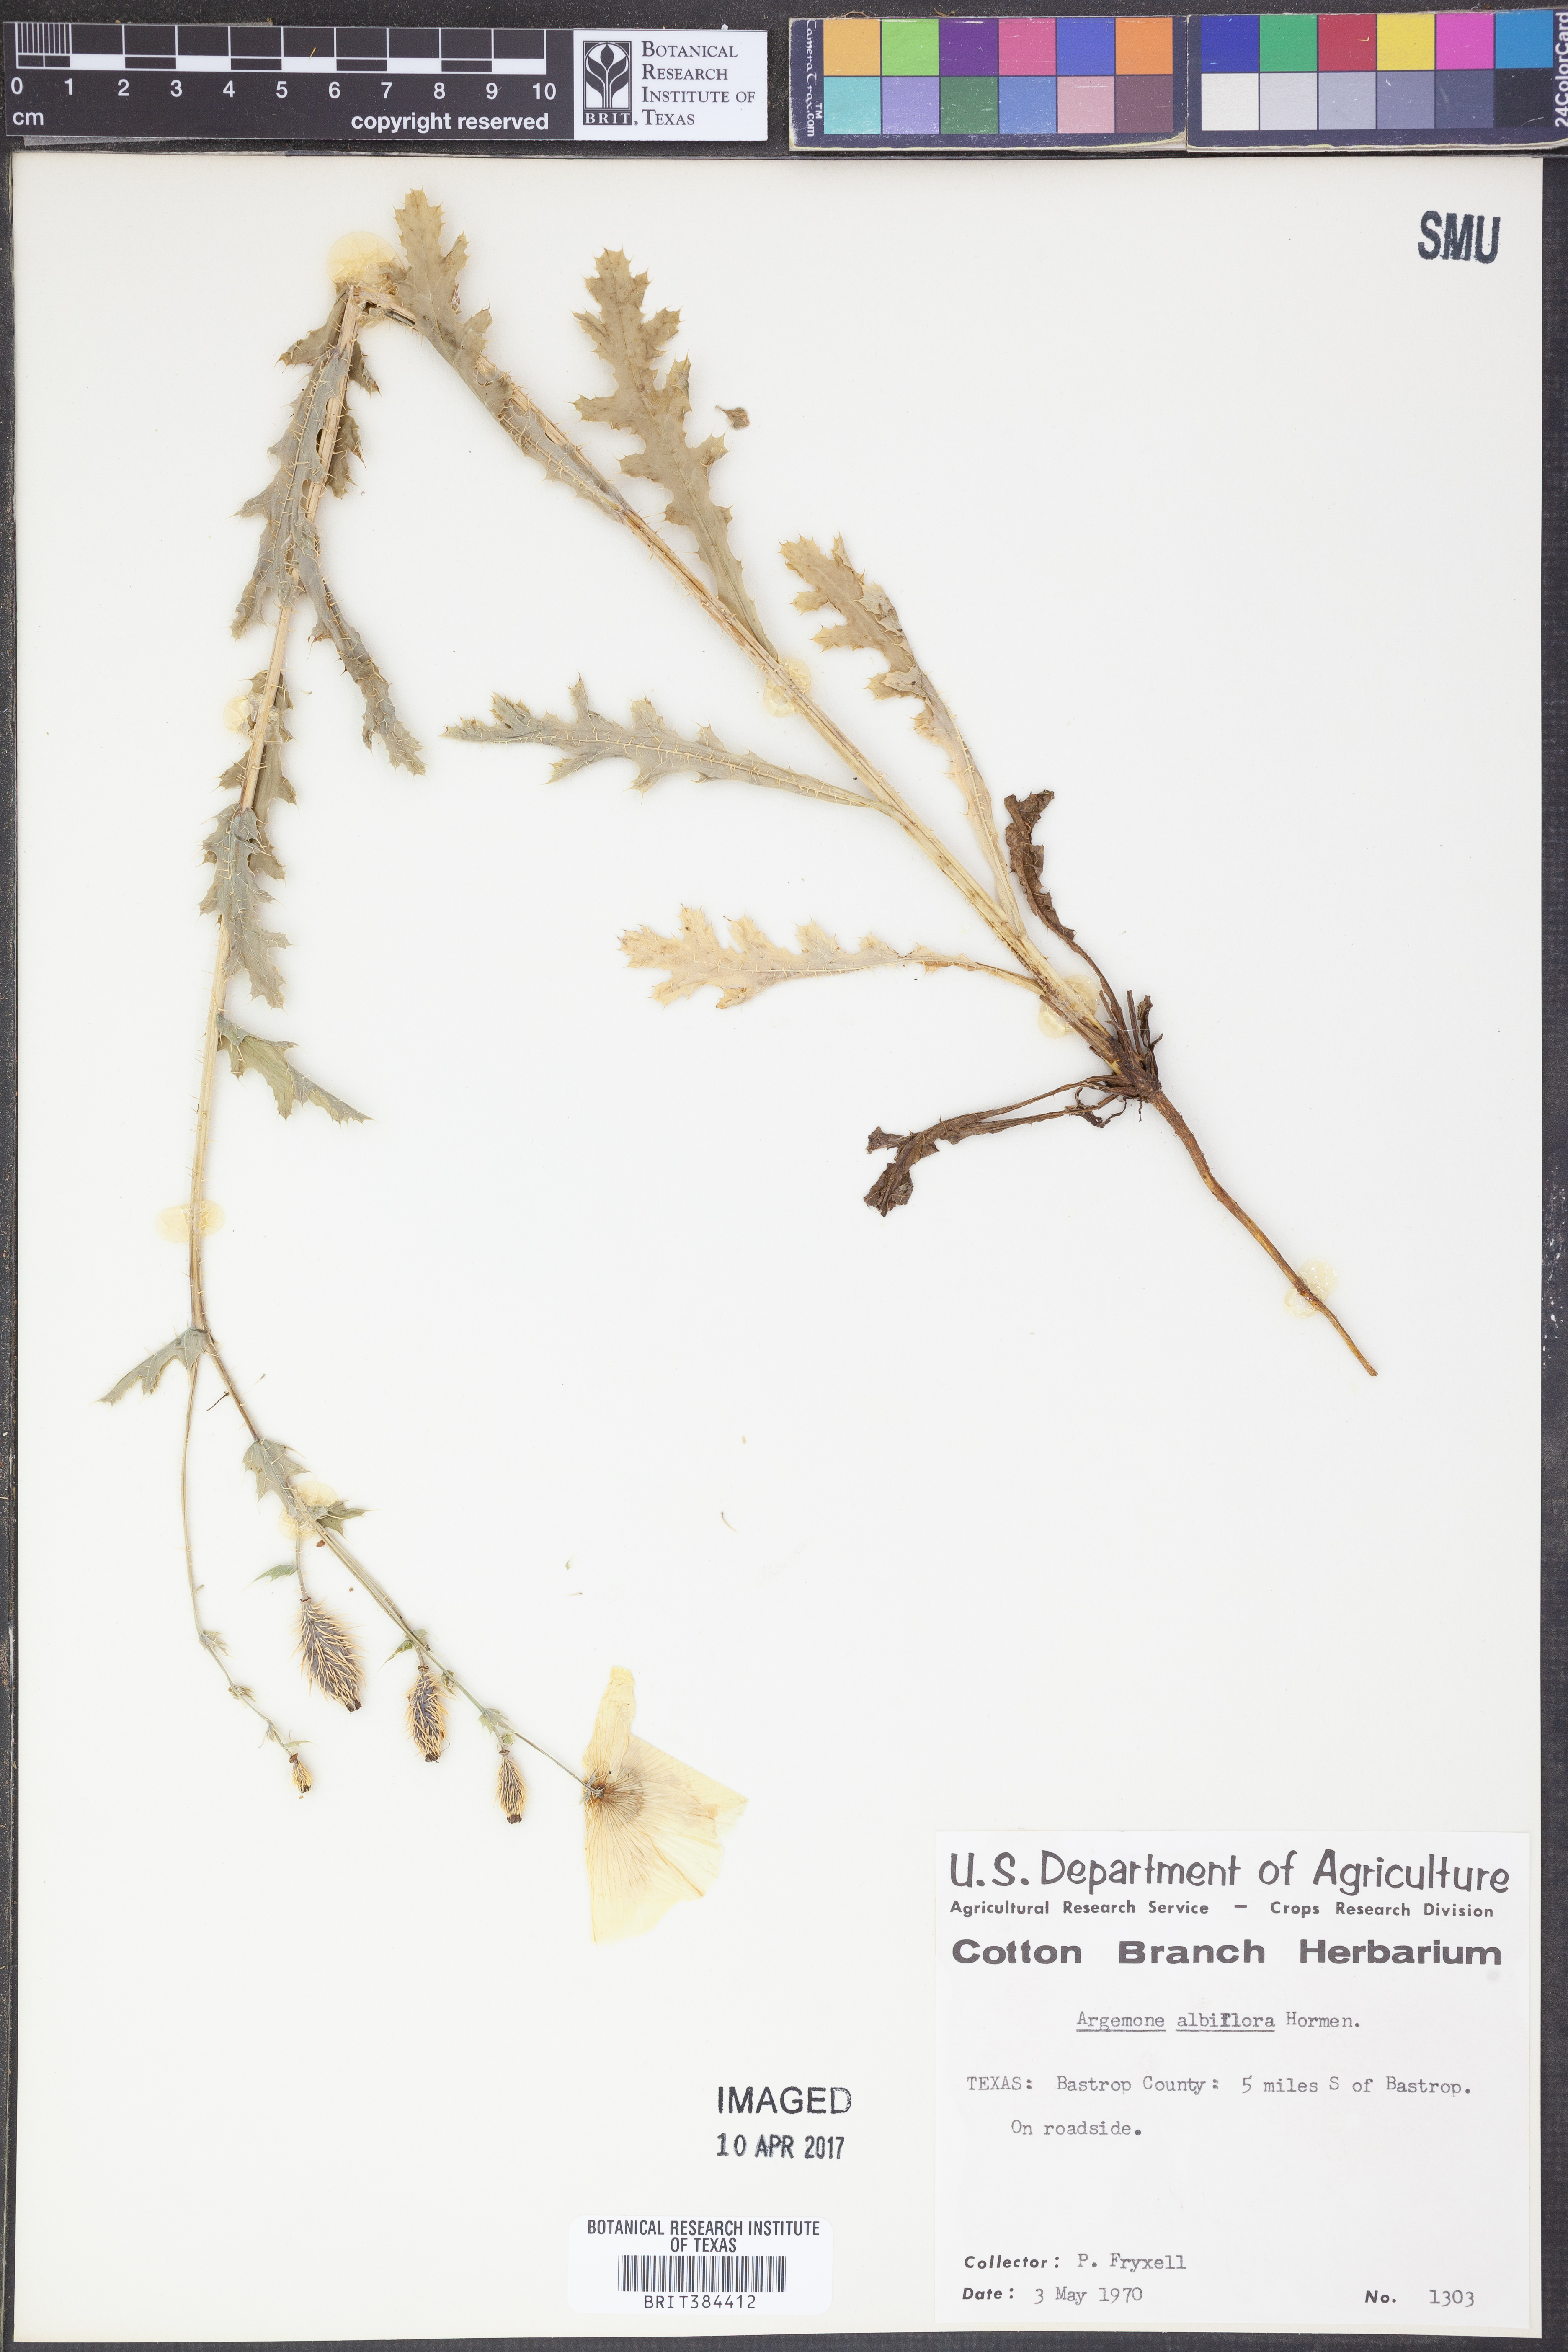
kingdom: Plantae
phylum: Tracheophyta
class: Magnoliopsida
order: Ranunculales
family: Papaveraceae
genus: Argemone
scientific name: Argemone albiflora
